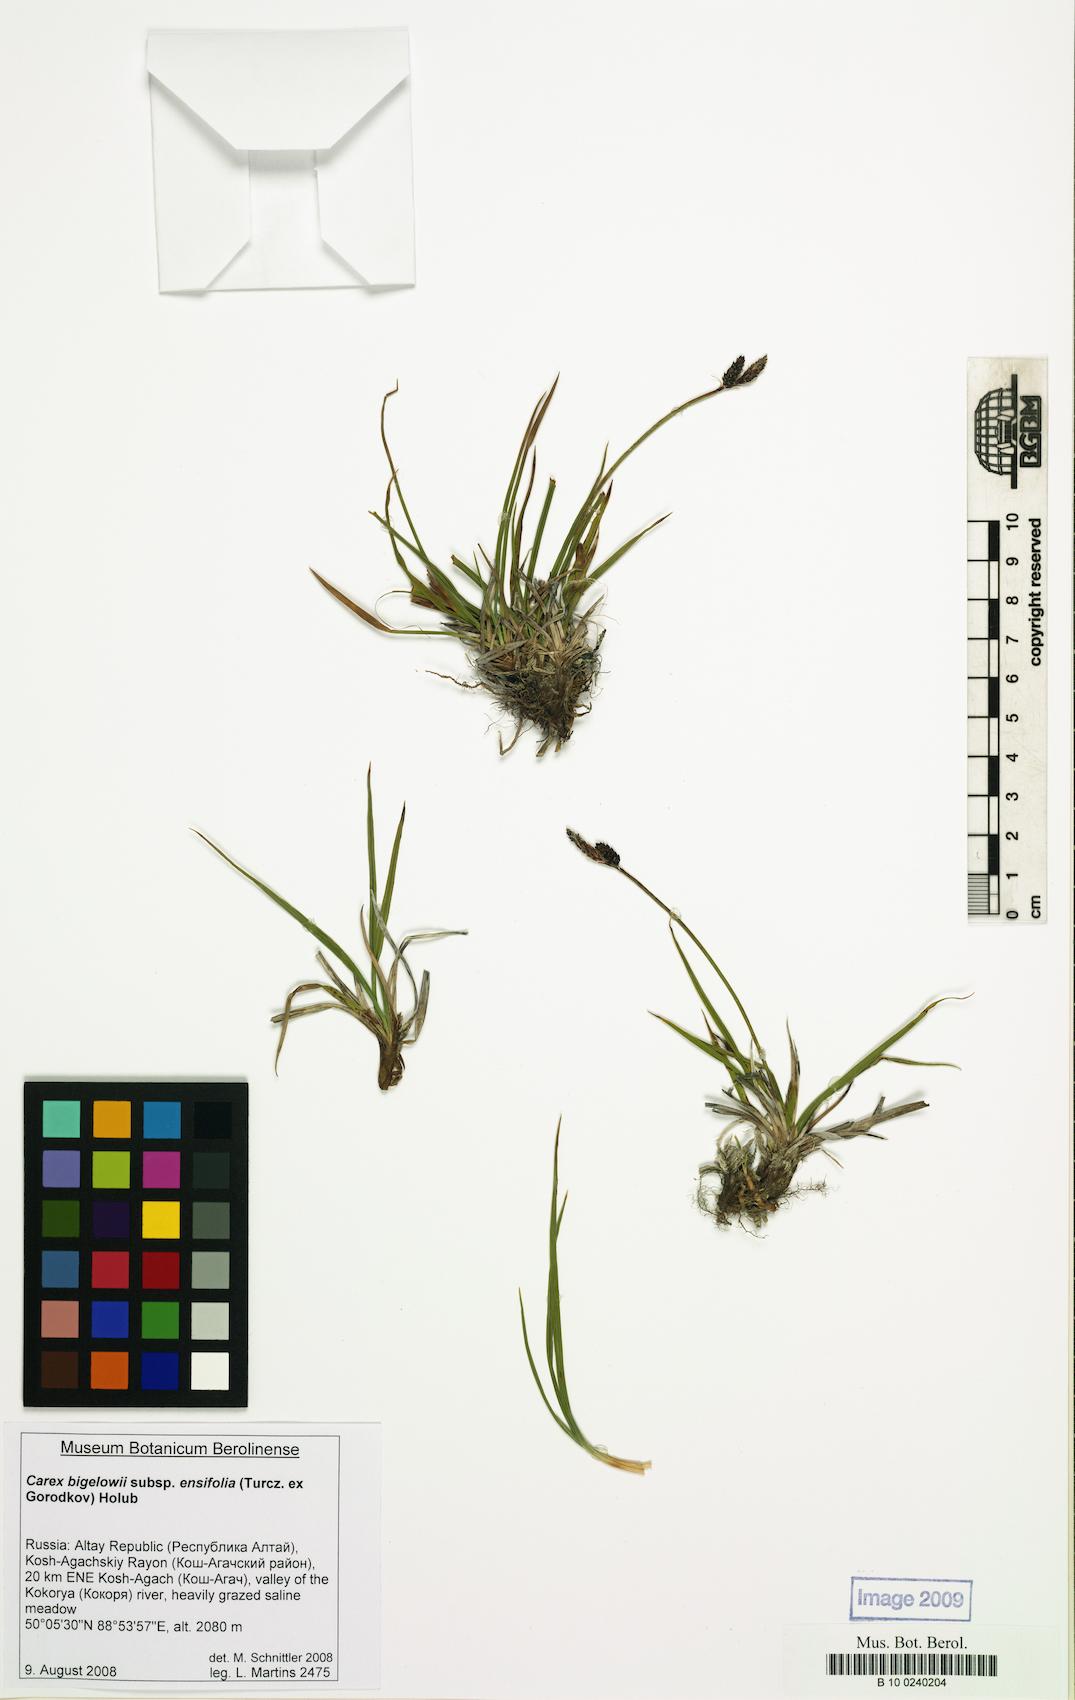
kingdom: Plantae
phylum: Tracheophyta
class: Liliopsida
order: Poales
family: Cyperaceae
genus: Carex
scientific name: Carex bigelowii
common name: Stiff sedge
